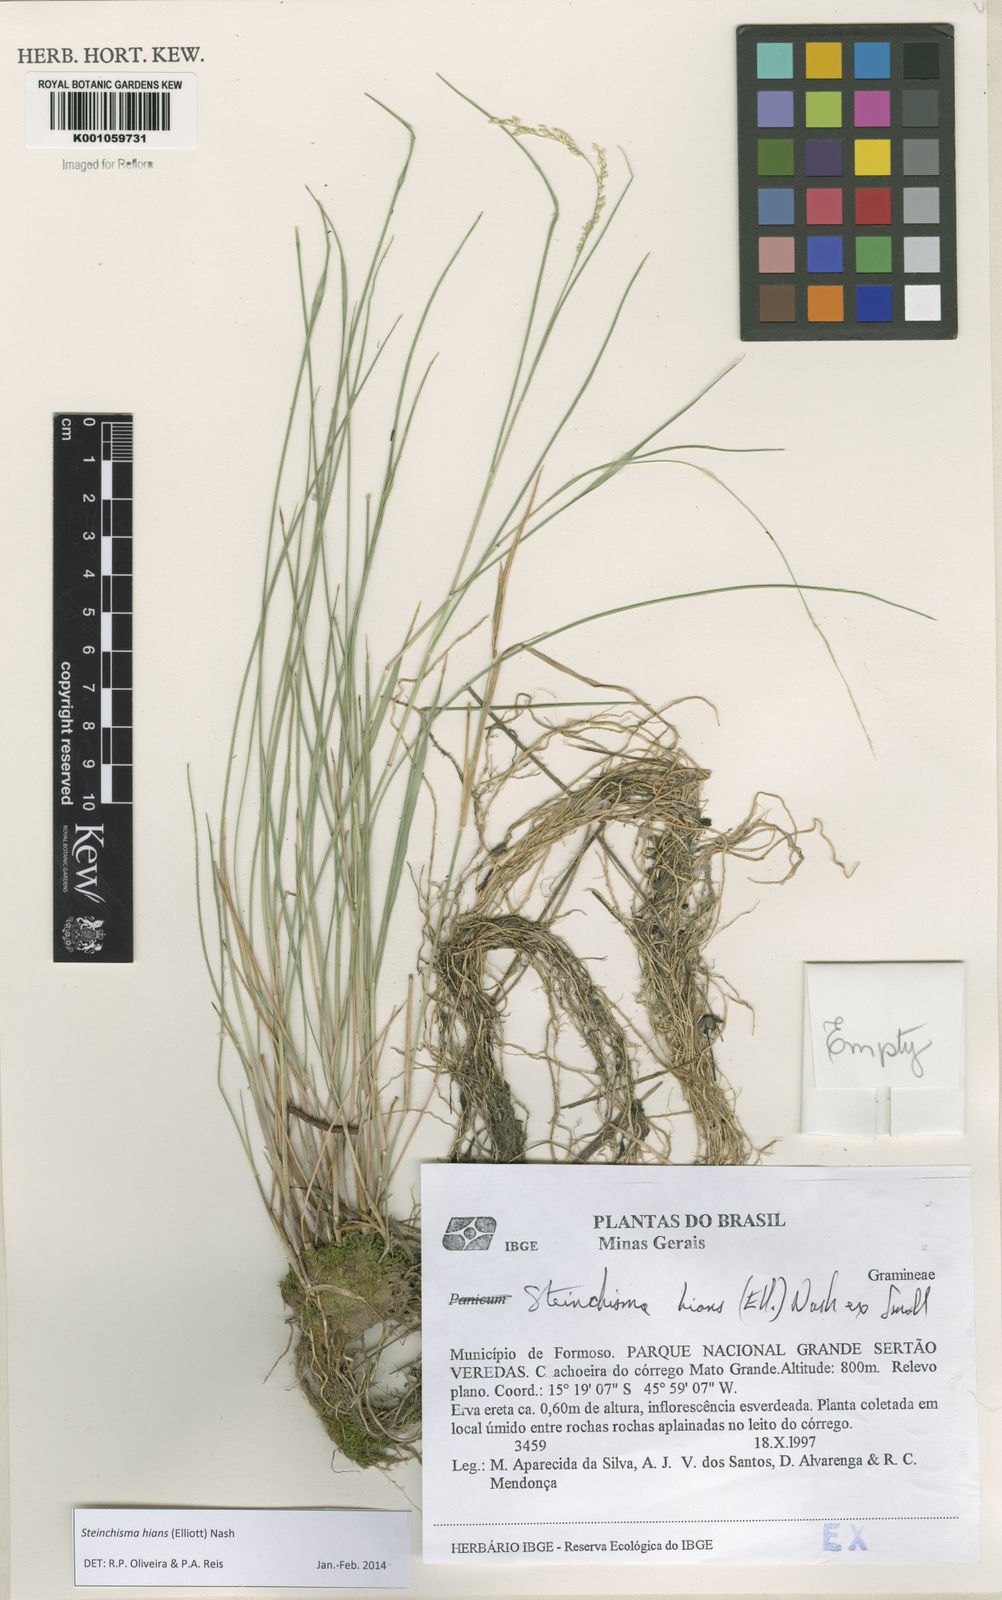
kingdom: Plantae
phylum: Tracheophyta
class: Liliopsida
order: Poales
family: Poaceae
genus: Steinchisma
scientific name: Steinchisma hians
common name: Gaping panic grass
